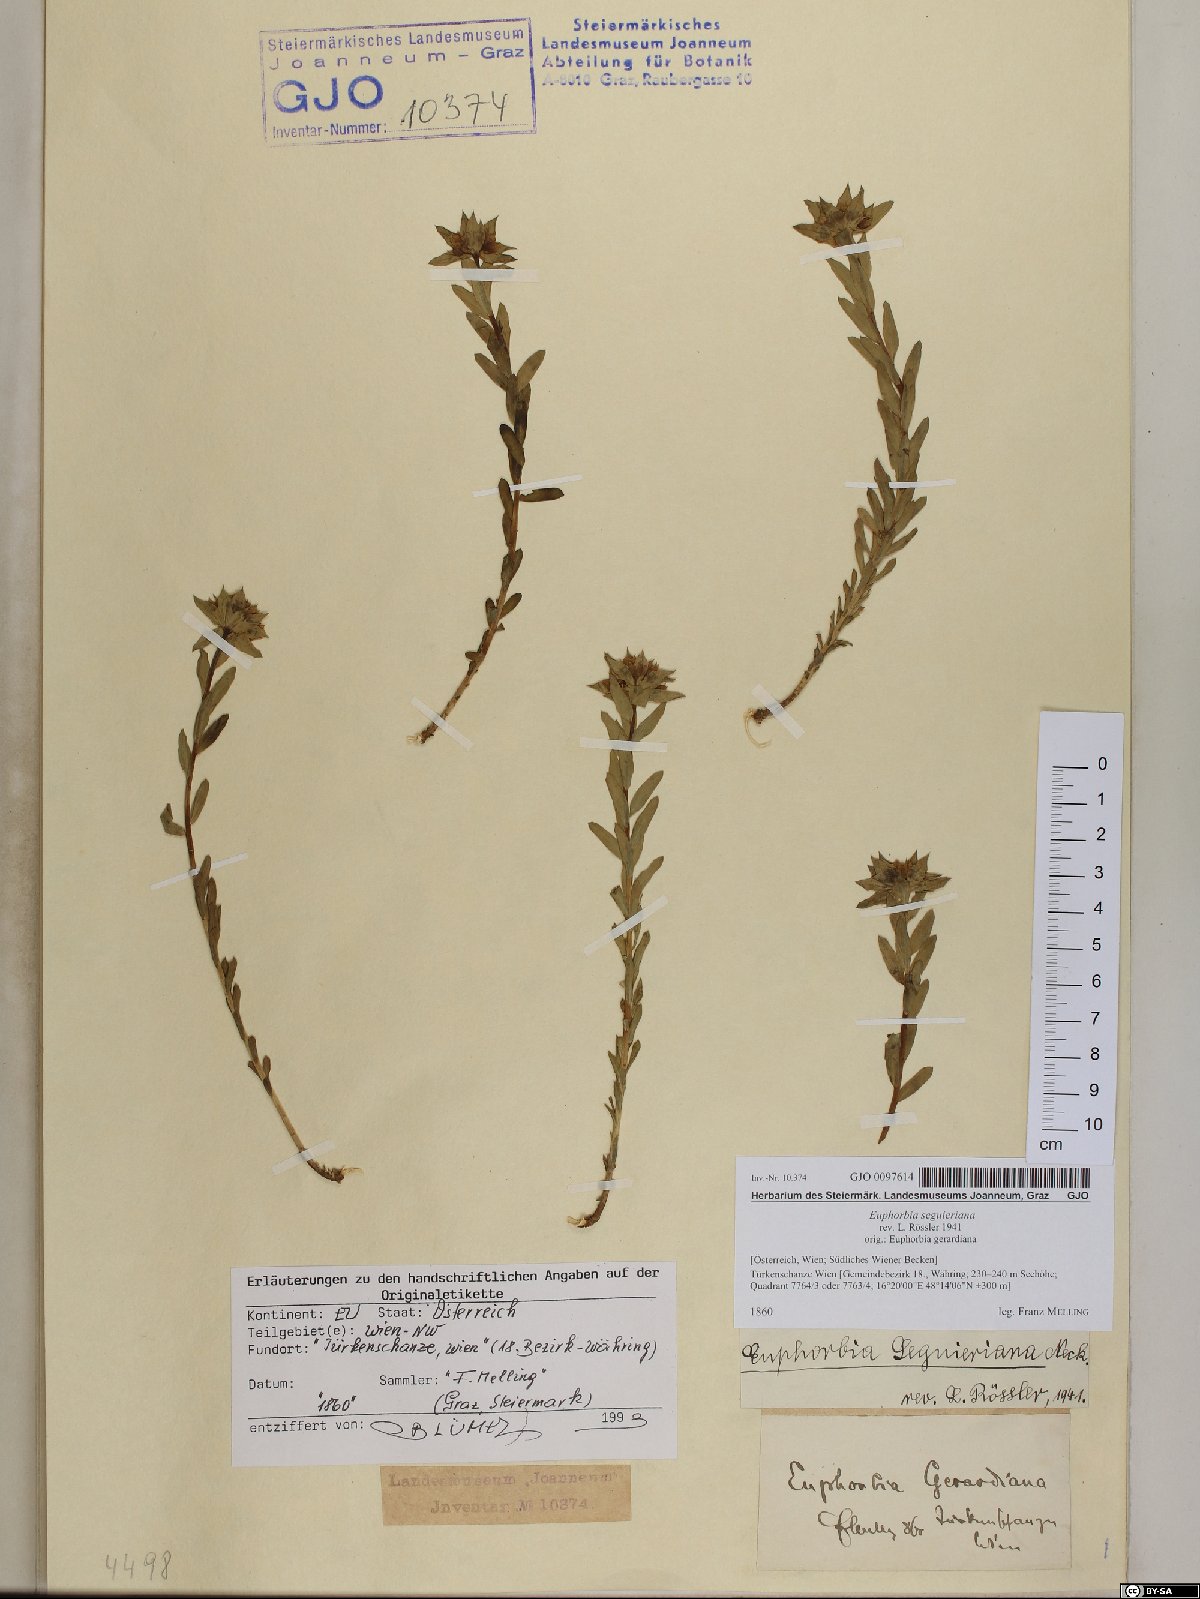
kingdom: Plantae
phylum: Tracheophyta
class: Magnoliopsida
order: Malpighiales
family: Euphorbiaceae
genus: Euphorbia
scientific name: Euphorbia seguieriana
